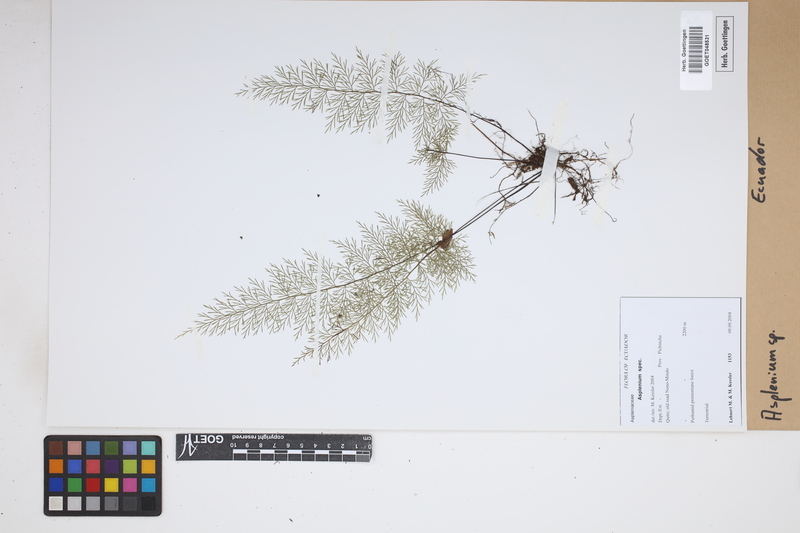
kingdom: Plantae
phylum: Tracheophyta
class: Polypodiopsida
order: Polypodiales
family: Aspleniaceae
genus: Asplenium
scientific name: Asplenium
